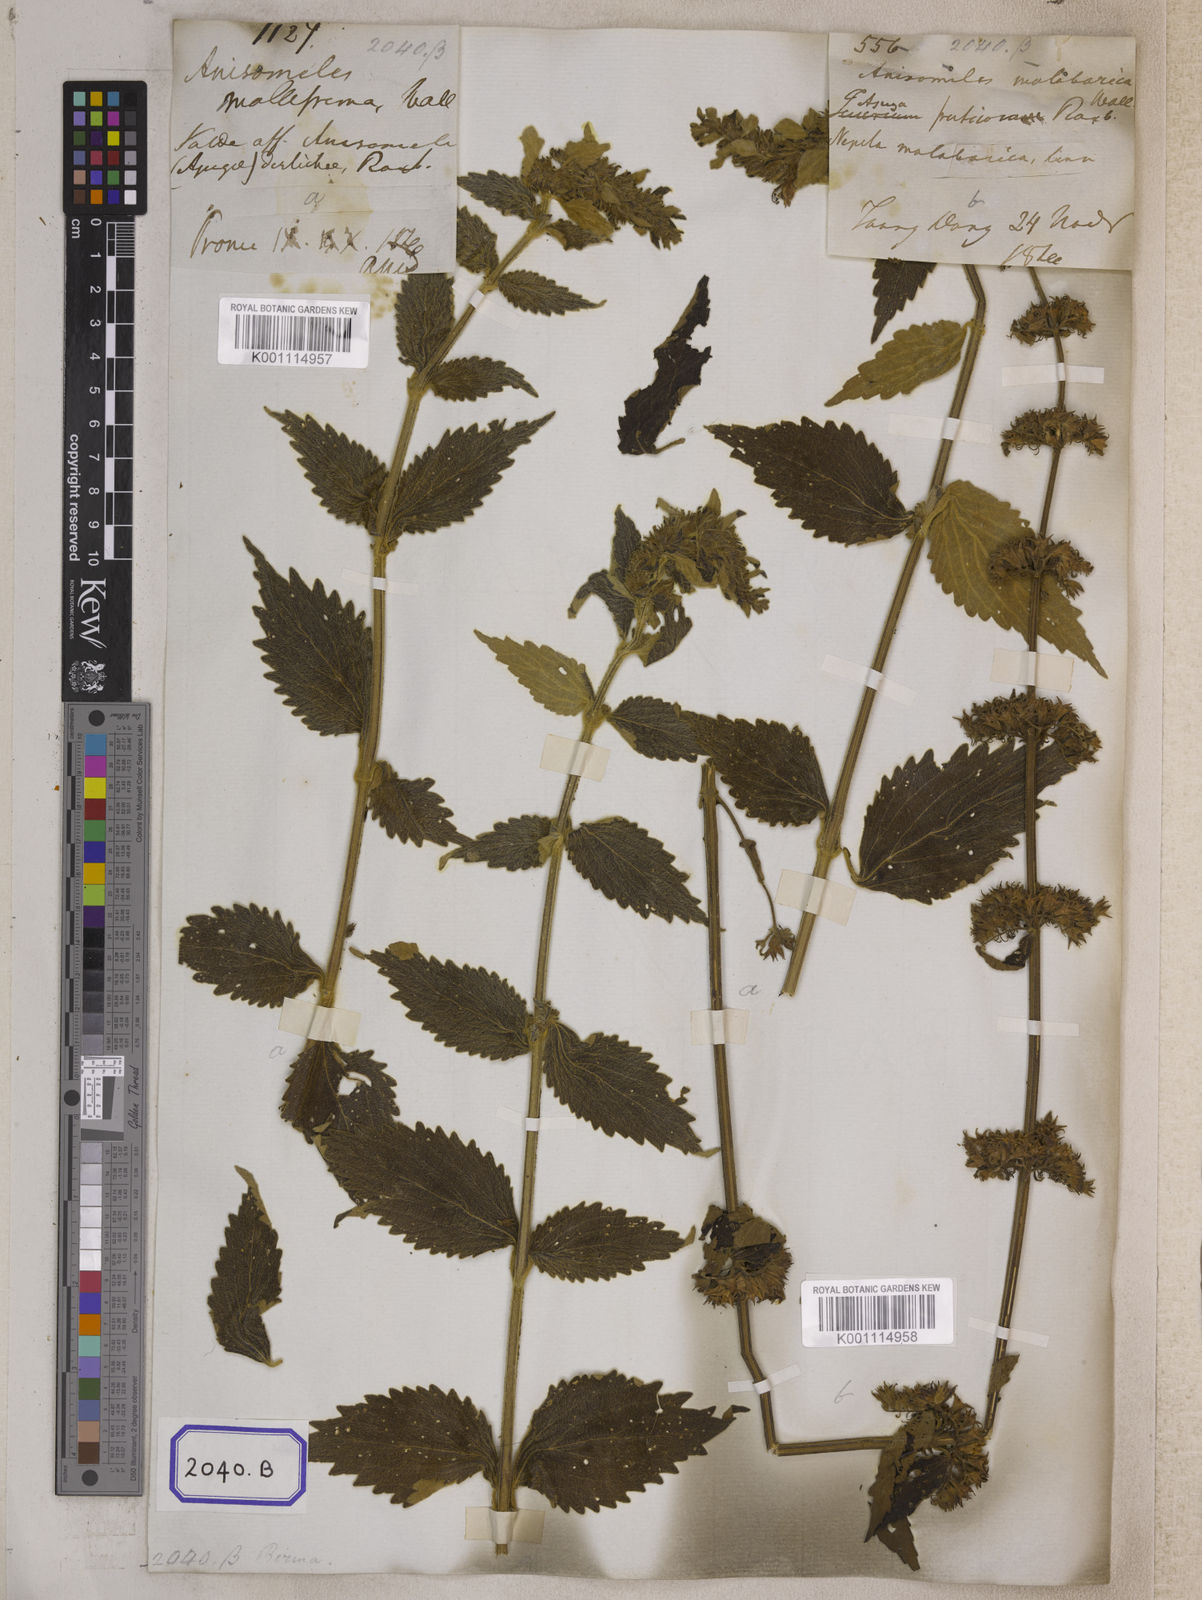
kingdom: Plantae
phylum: Tracheophyta
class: Magnoliopsida
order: Lamiales
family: Lamiaceae
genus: Anisomeles
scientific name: Anisomeles
